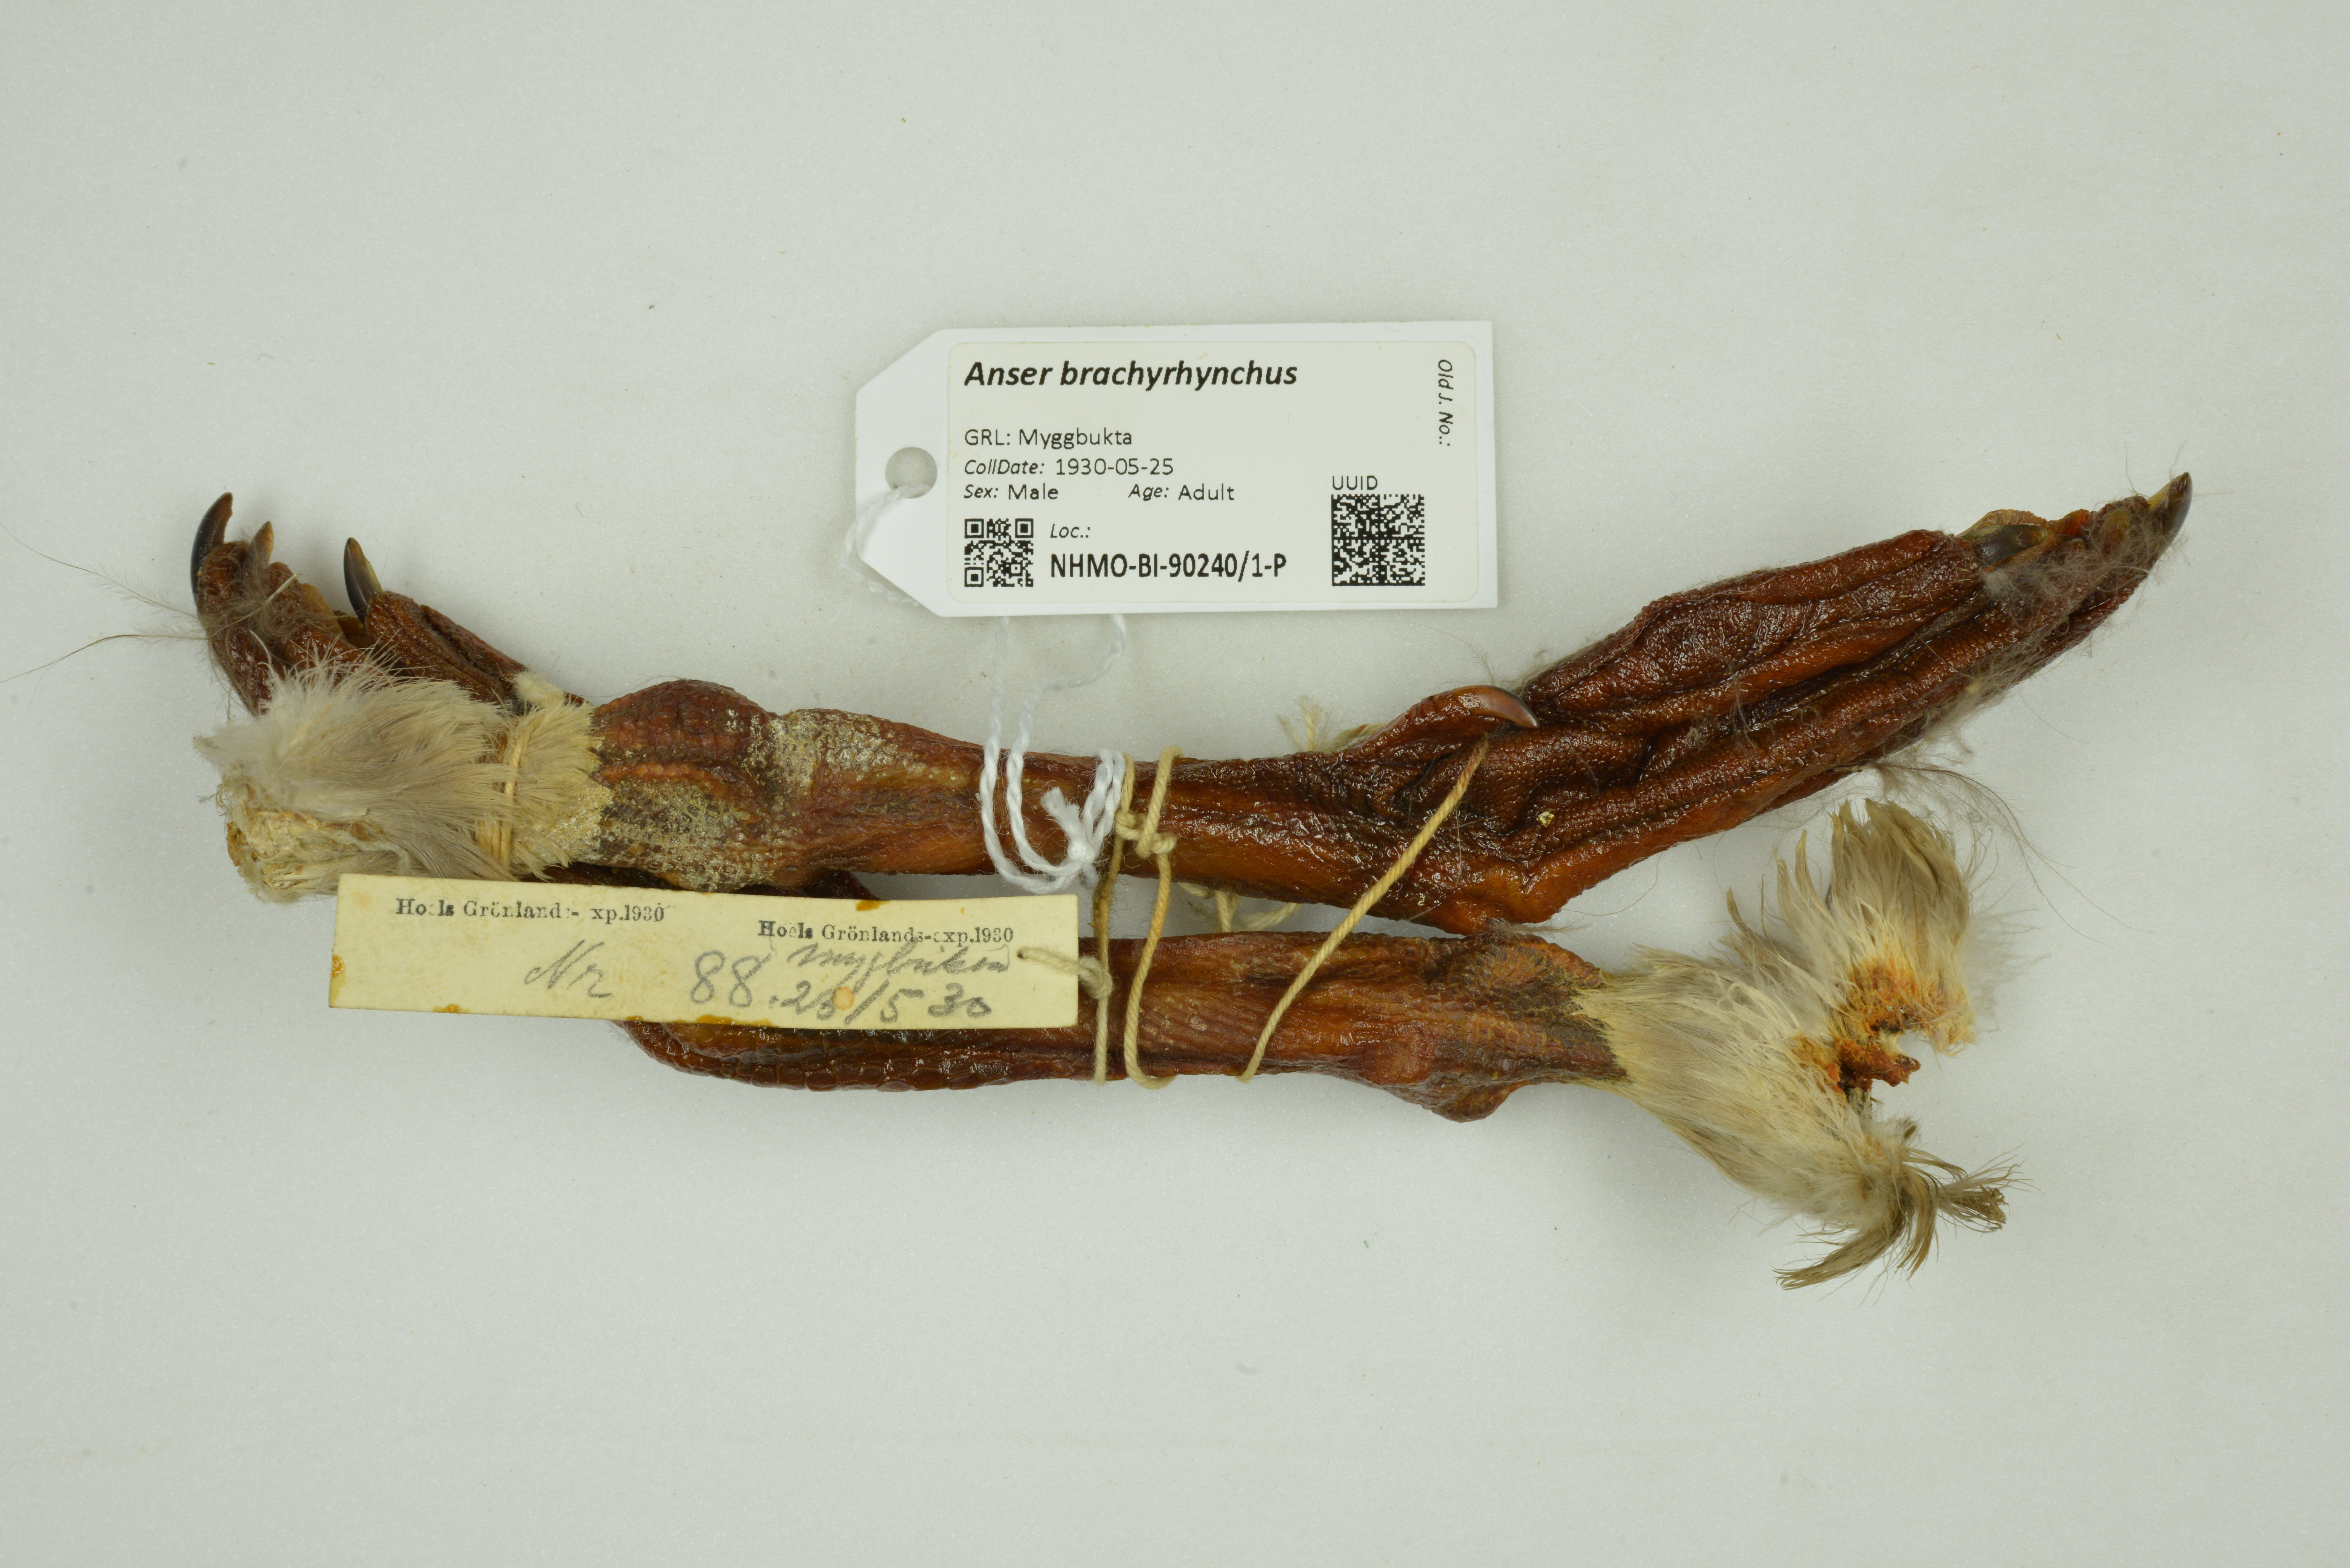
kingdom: Animalia
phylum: Chordata
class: Aves
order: Anseriformes
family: Anatidae
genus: Anser
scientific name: Anser brachyrhynchus
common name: Pink-footed goose
